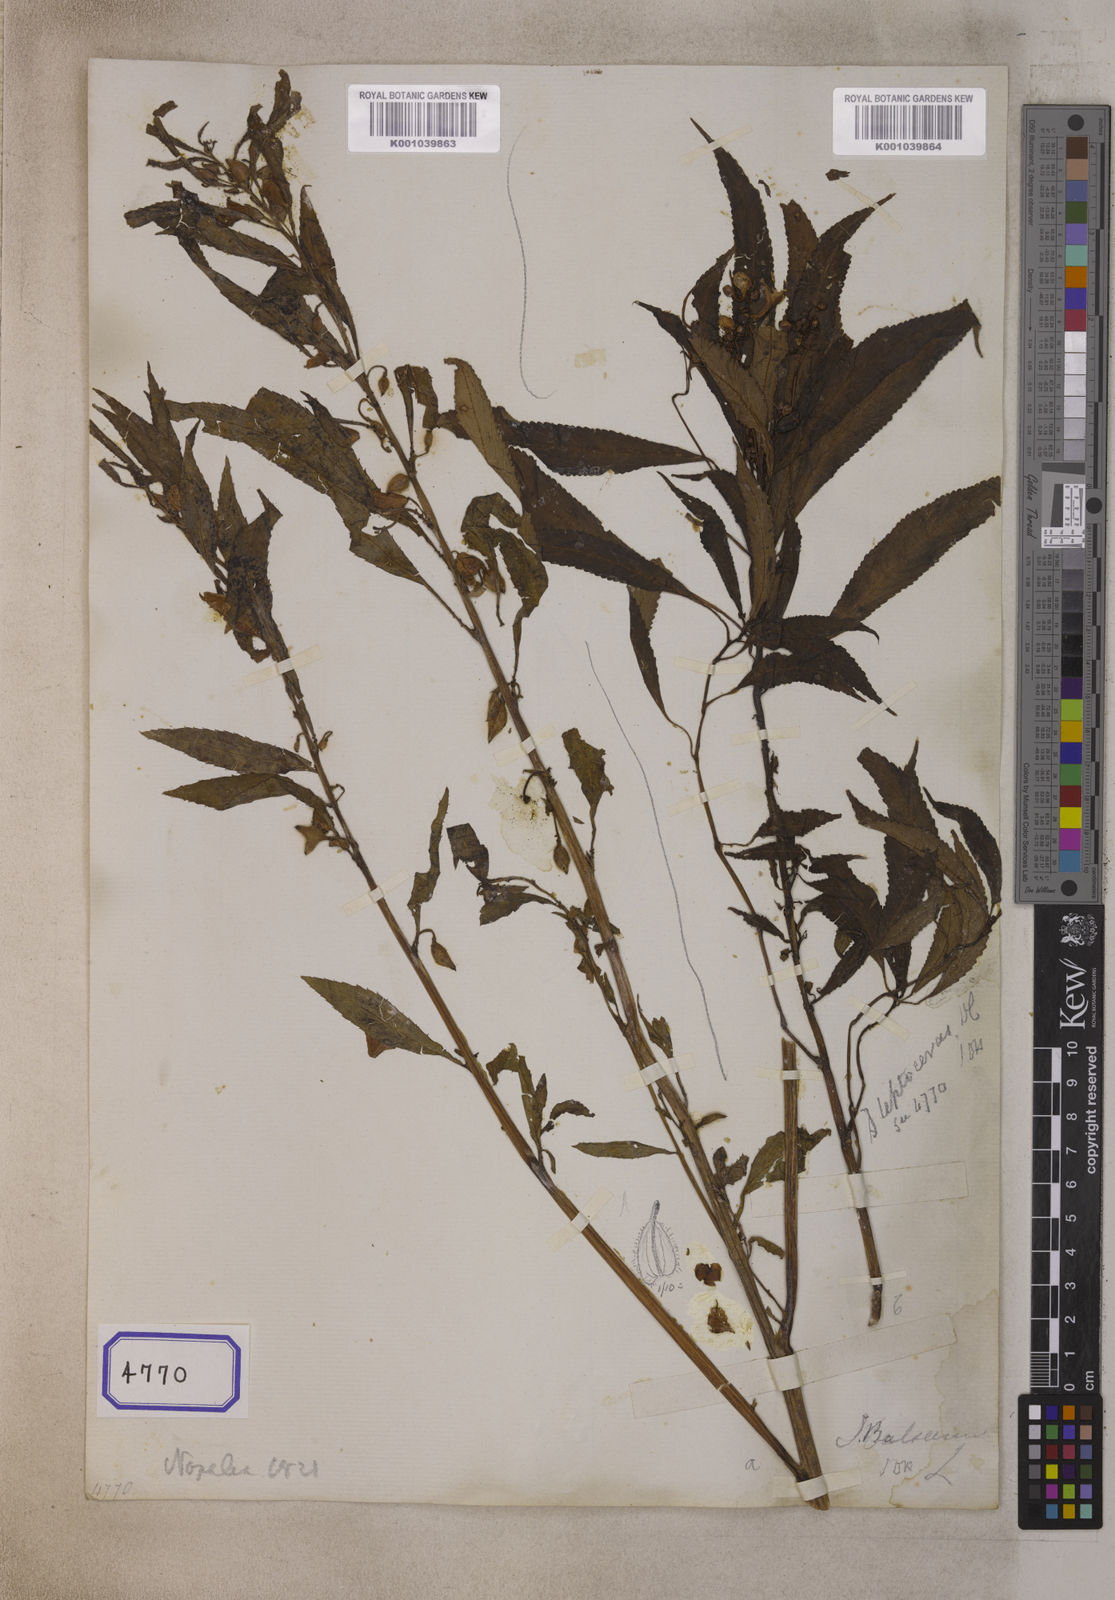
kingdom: Plantae
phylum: Tracheophyta
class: Magnoliopsida
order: Ericales
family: Balsaminaceae
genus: Impatiens
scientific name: Impatiens leptoceras
